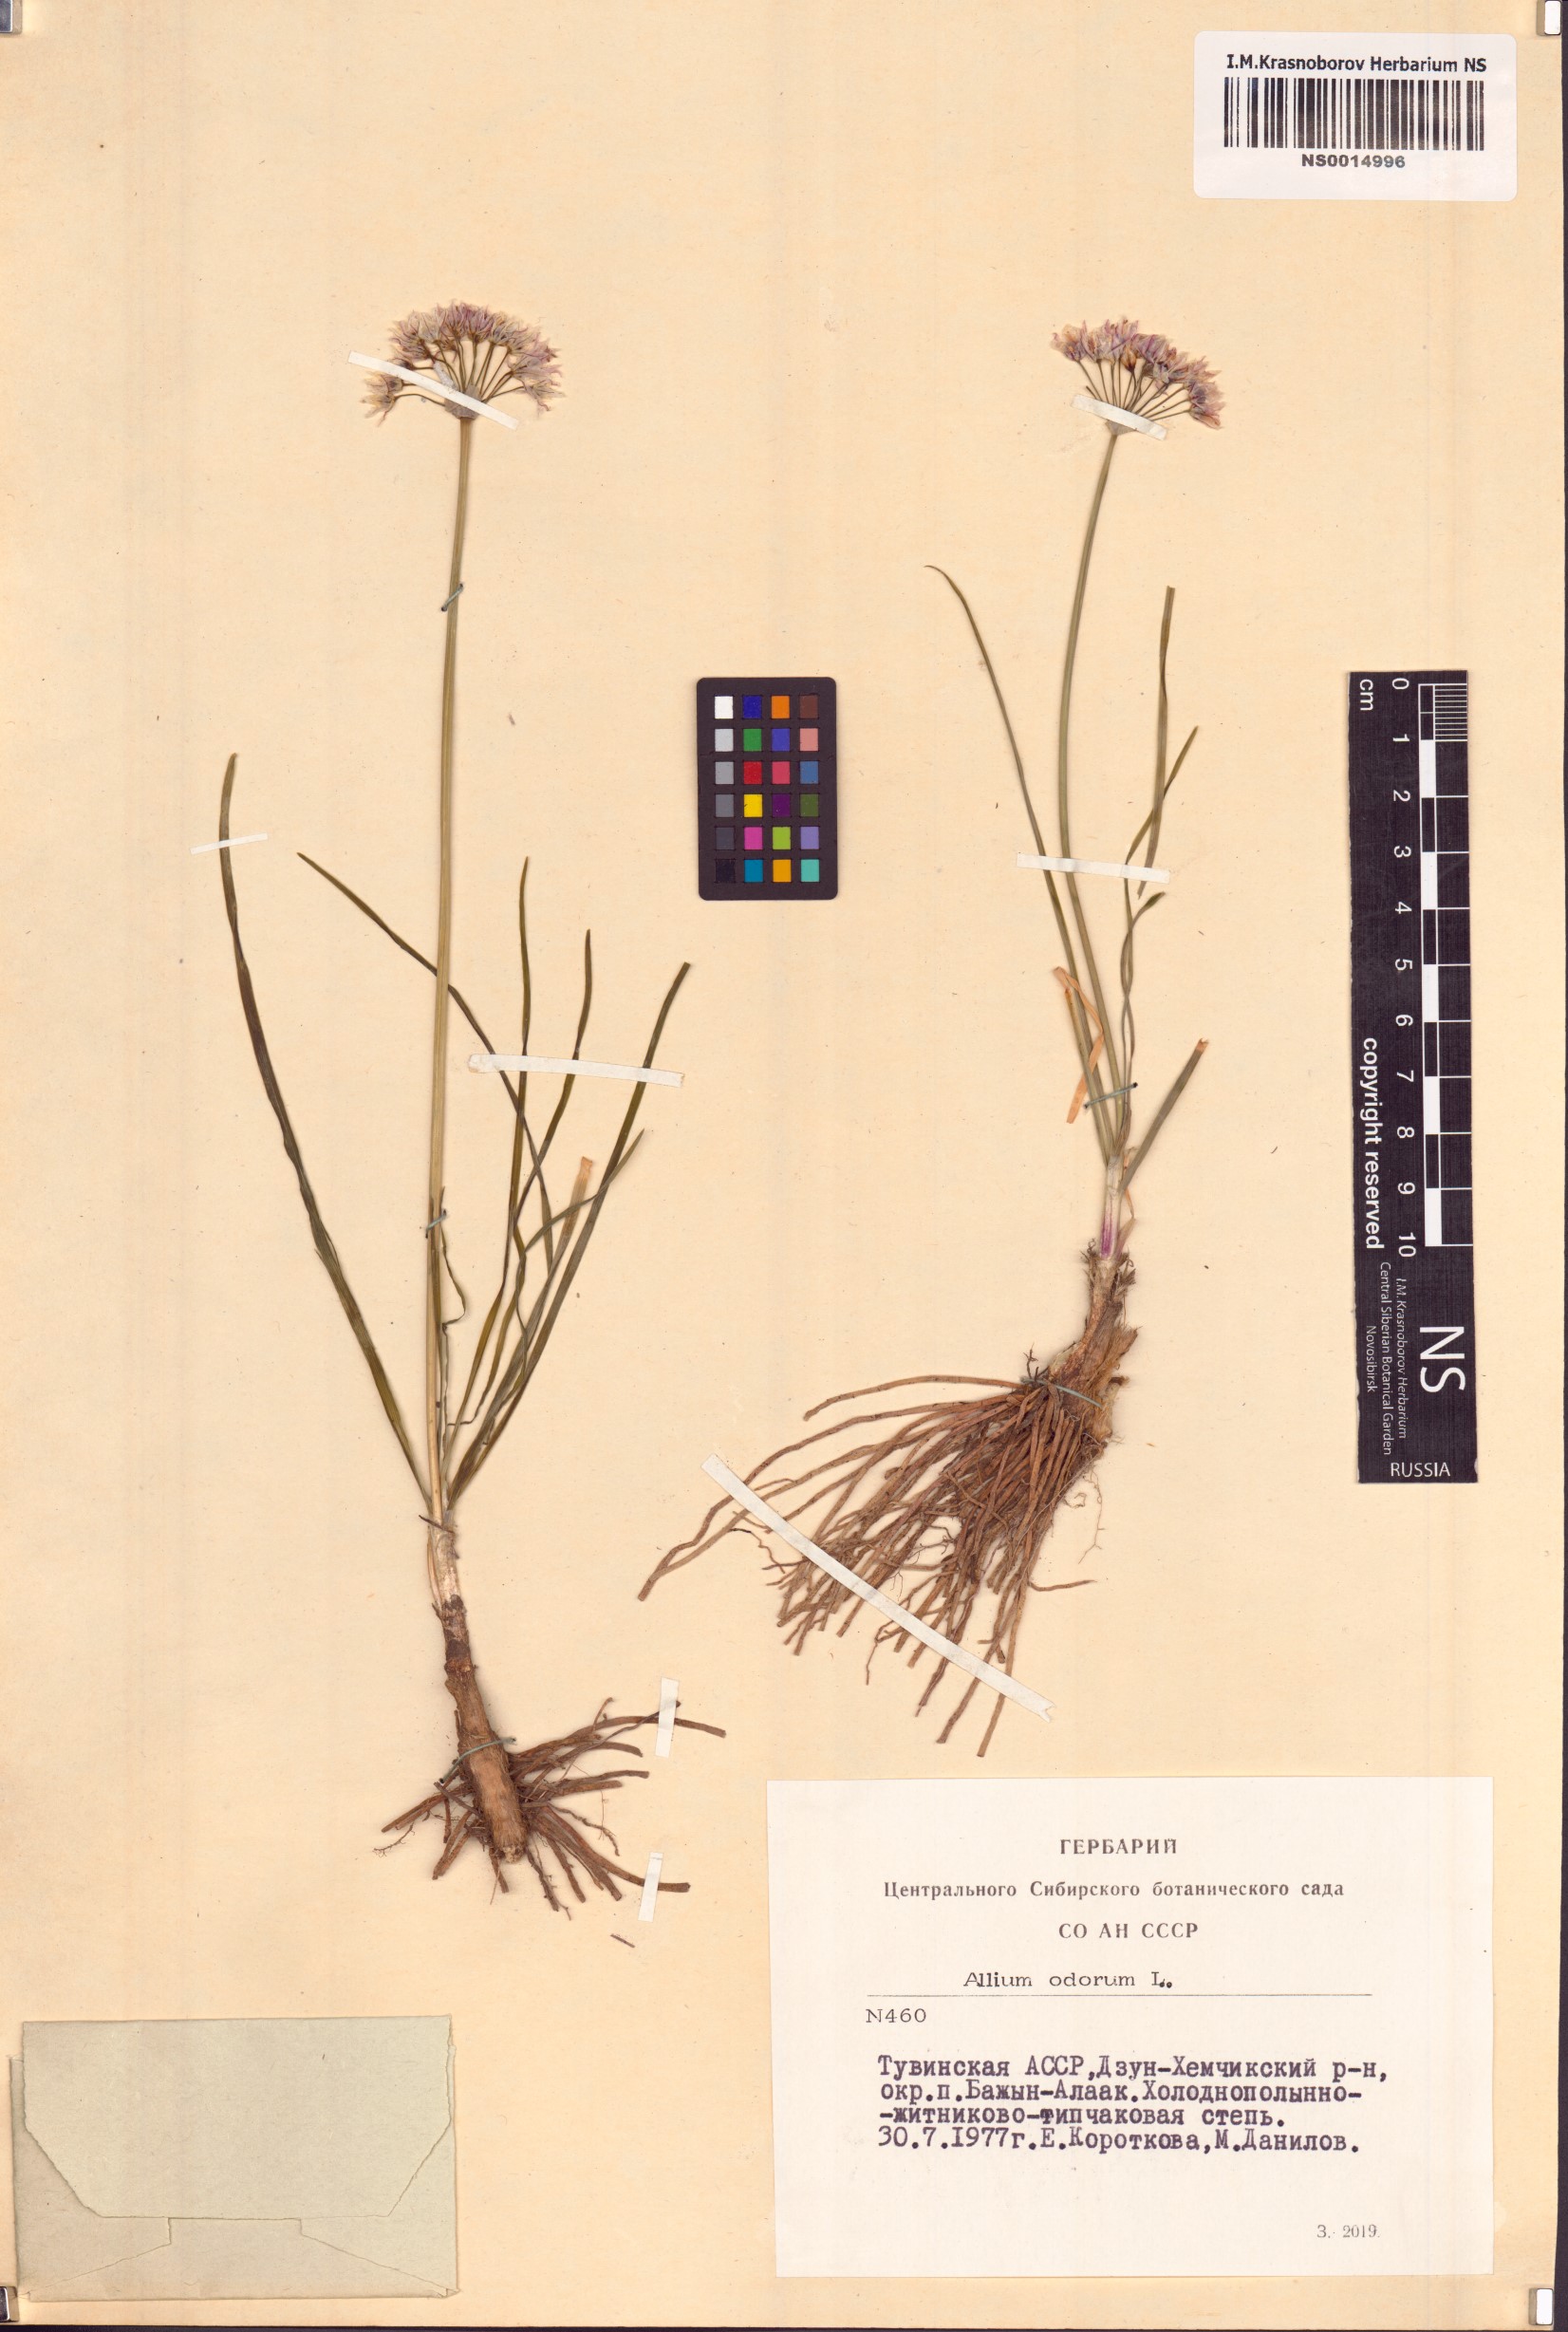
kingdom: Plantae
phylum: Tracheophyta
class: Liliopsida
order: Asparagales
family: Amaryllidaceae
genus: Allium
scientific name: Allium ramosum
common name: Fragrant garlic
